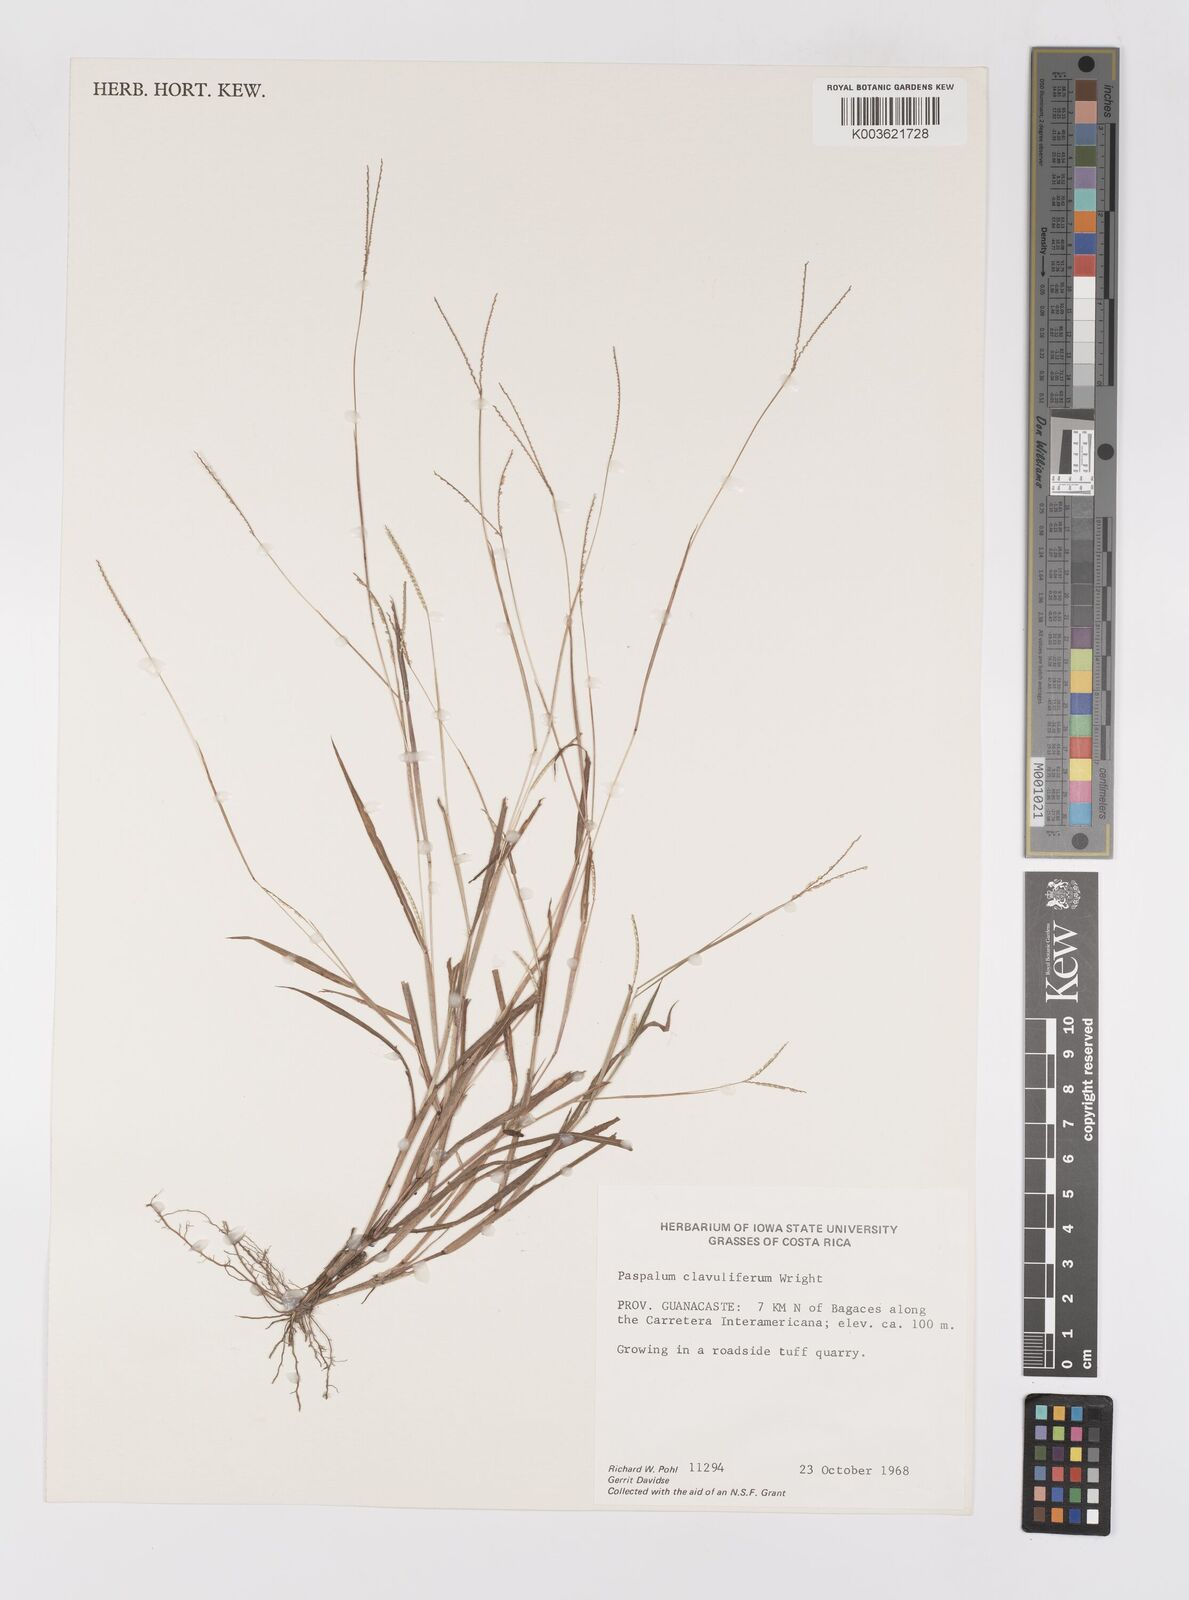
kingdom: Plantae
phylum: Tracheophyta
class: Liliopsida
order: Poales
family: Poaceae
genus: Paspalum
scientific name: Paspalum clavuliferum
